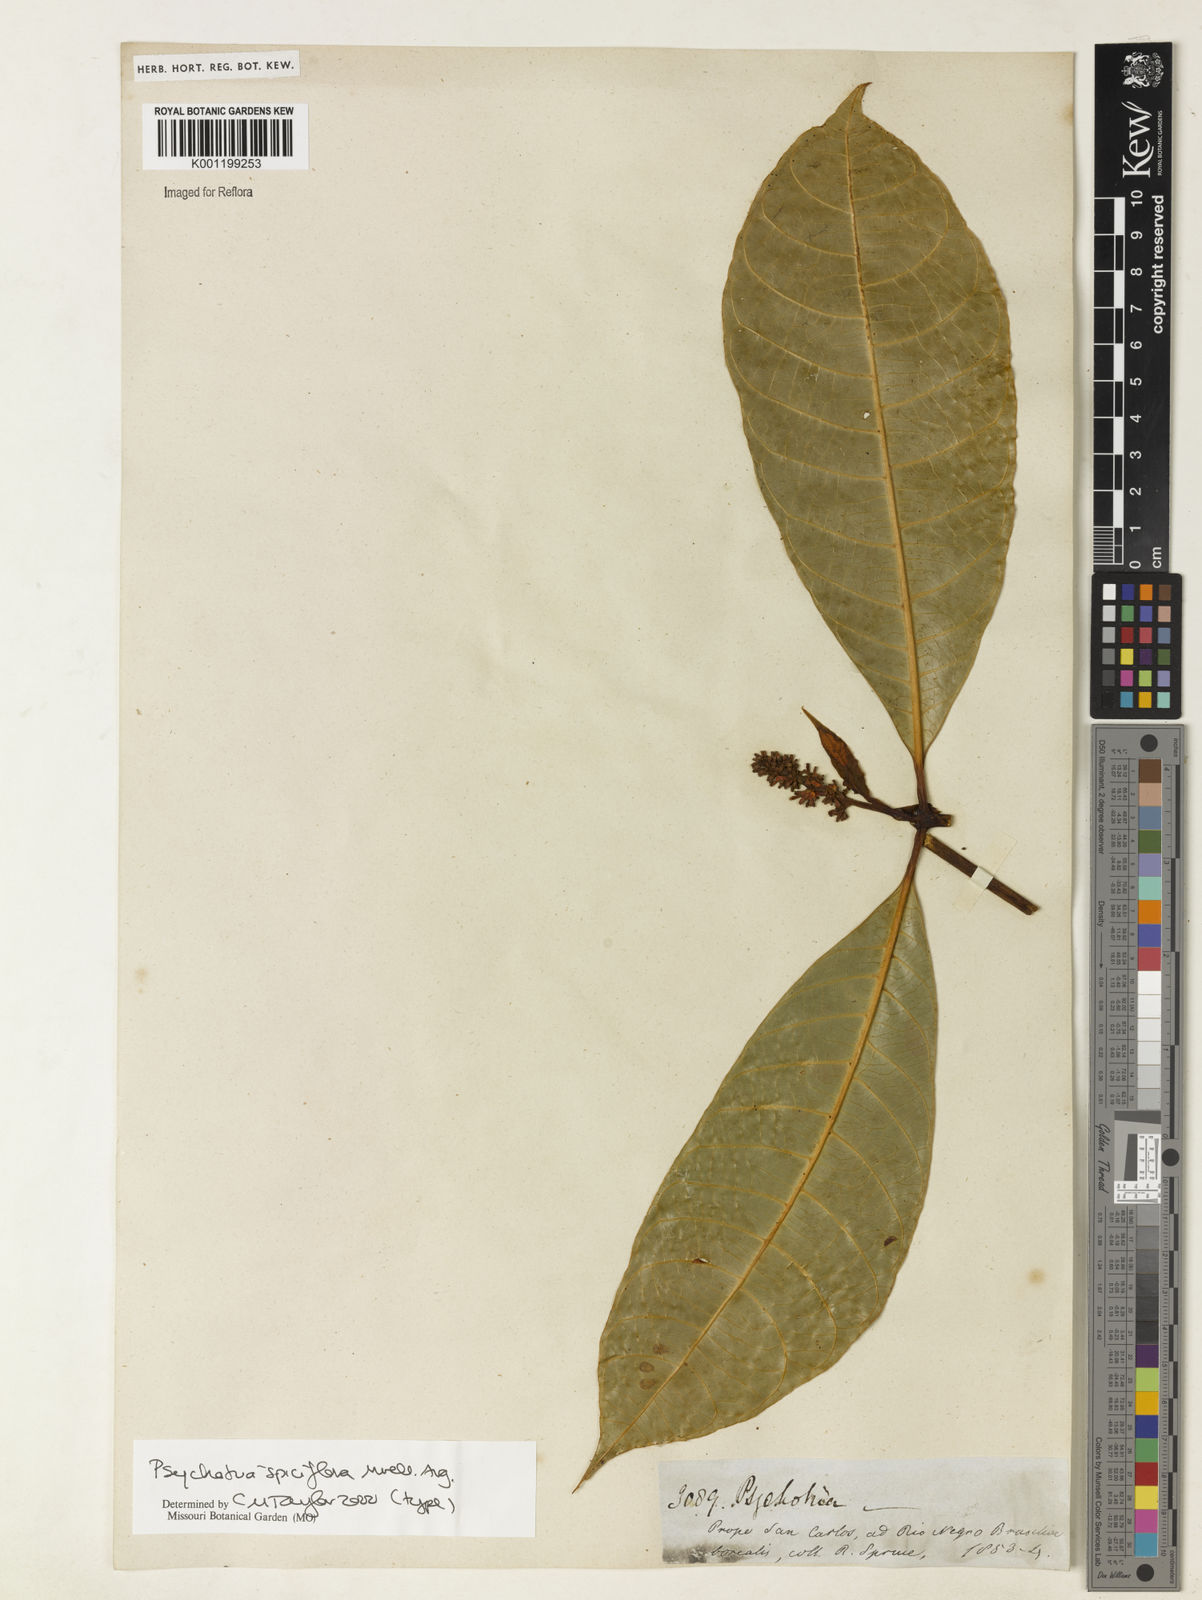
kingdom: Plantae
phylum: Tracheophyta
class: Magnoliopsida
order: Gentianales
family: Rubiaceae
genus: Palicourea
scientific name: Palicourea spicata
